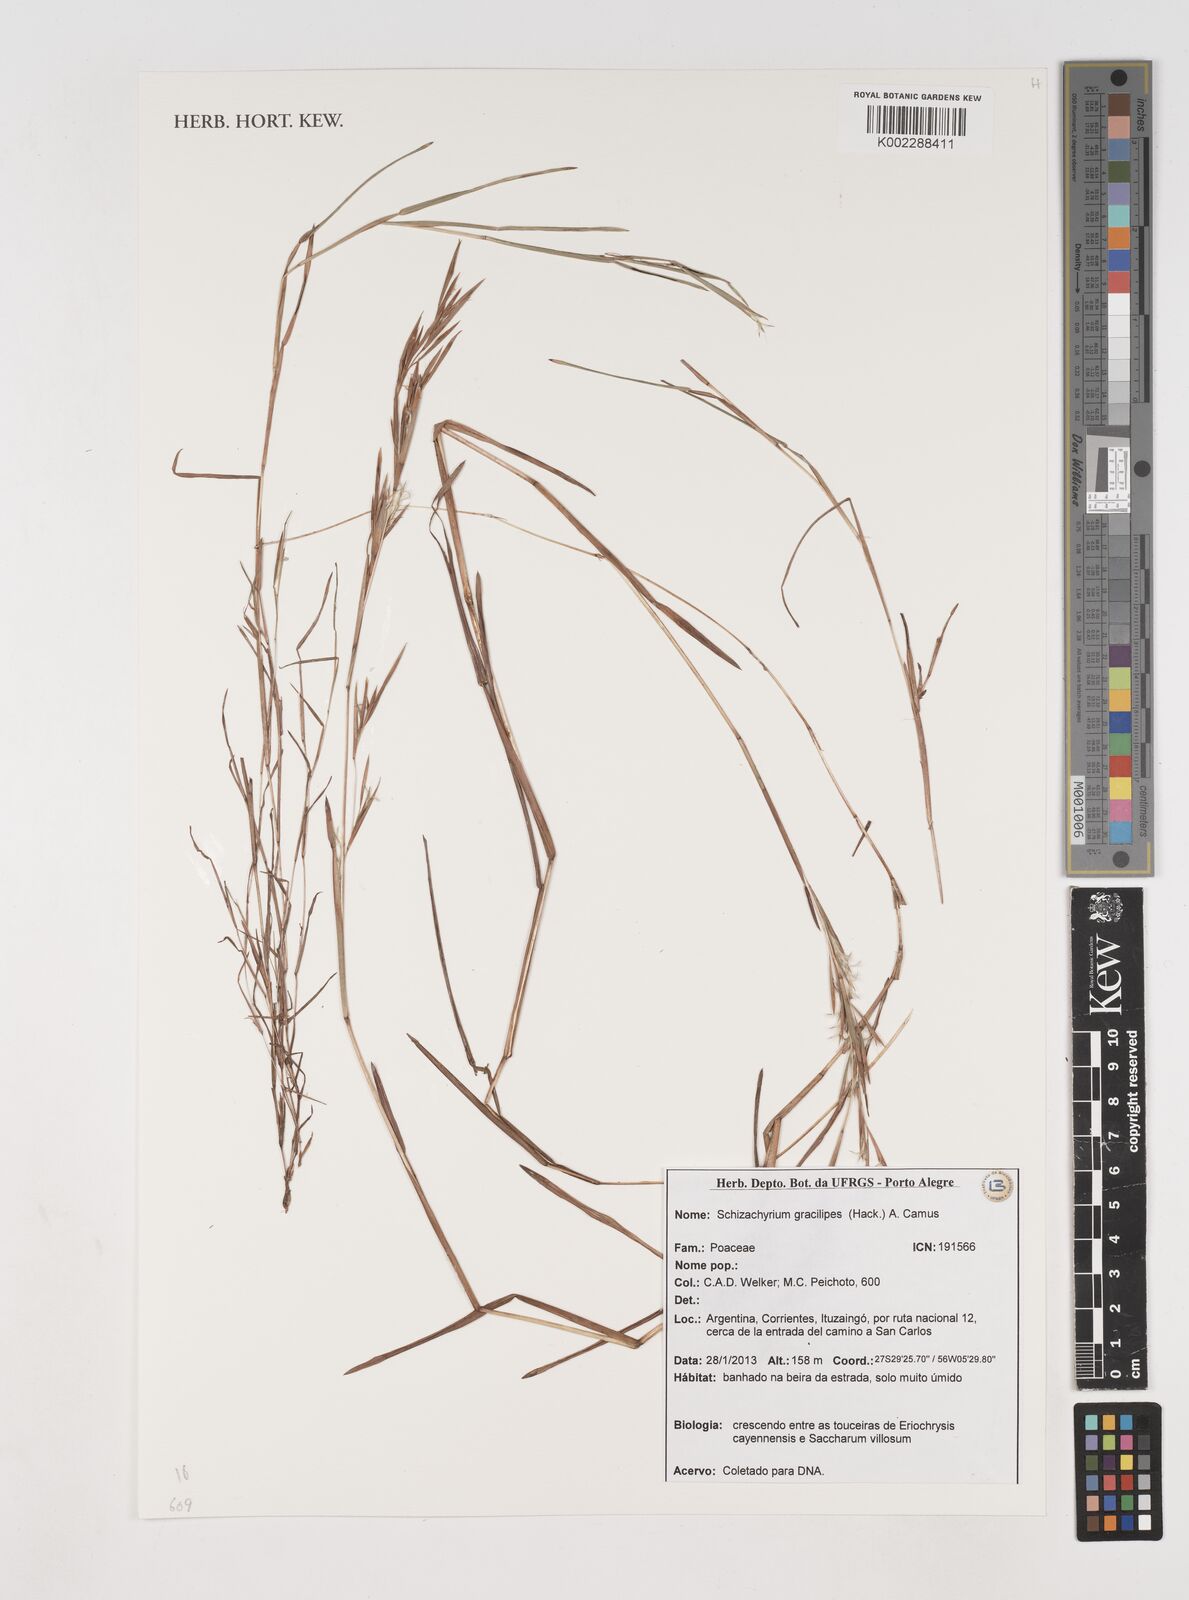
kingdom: Plantae
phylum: Tracheophyta
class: Liliopsida
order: Poales
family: Poaceae
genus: Schizachyrium
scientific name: Schizachyrium glaziovii
